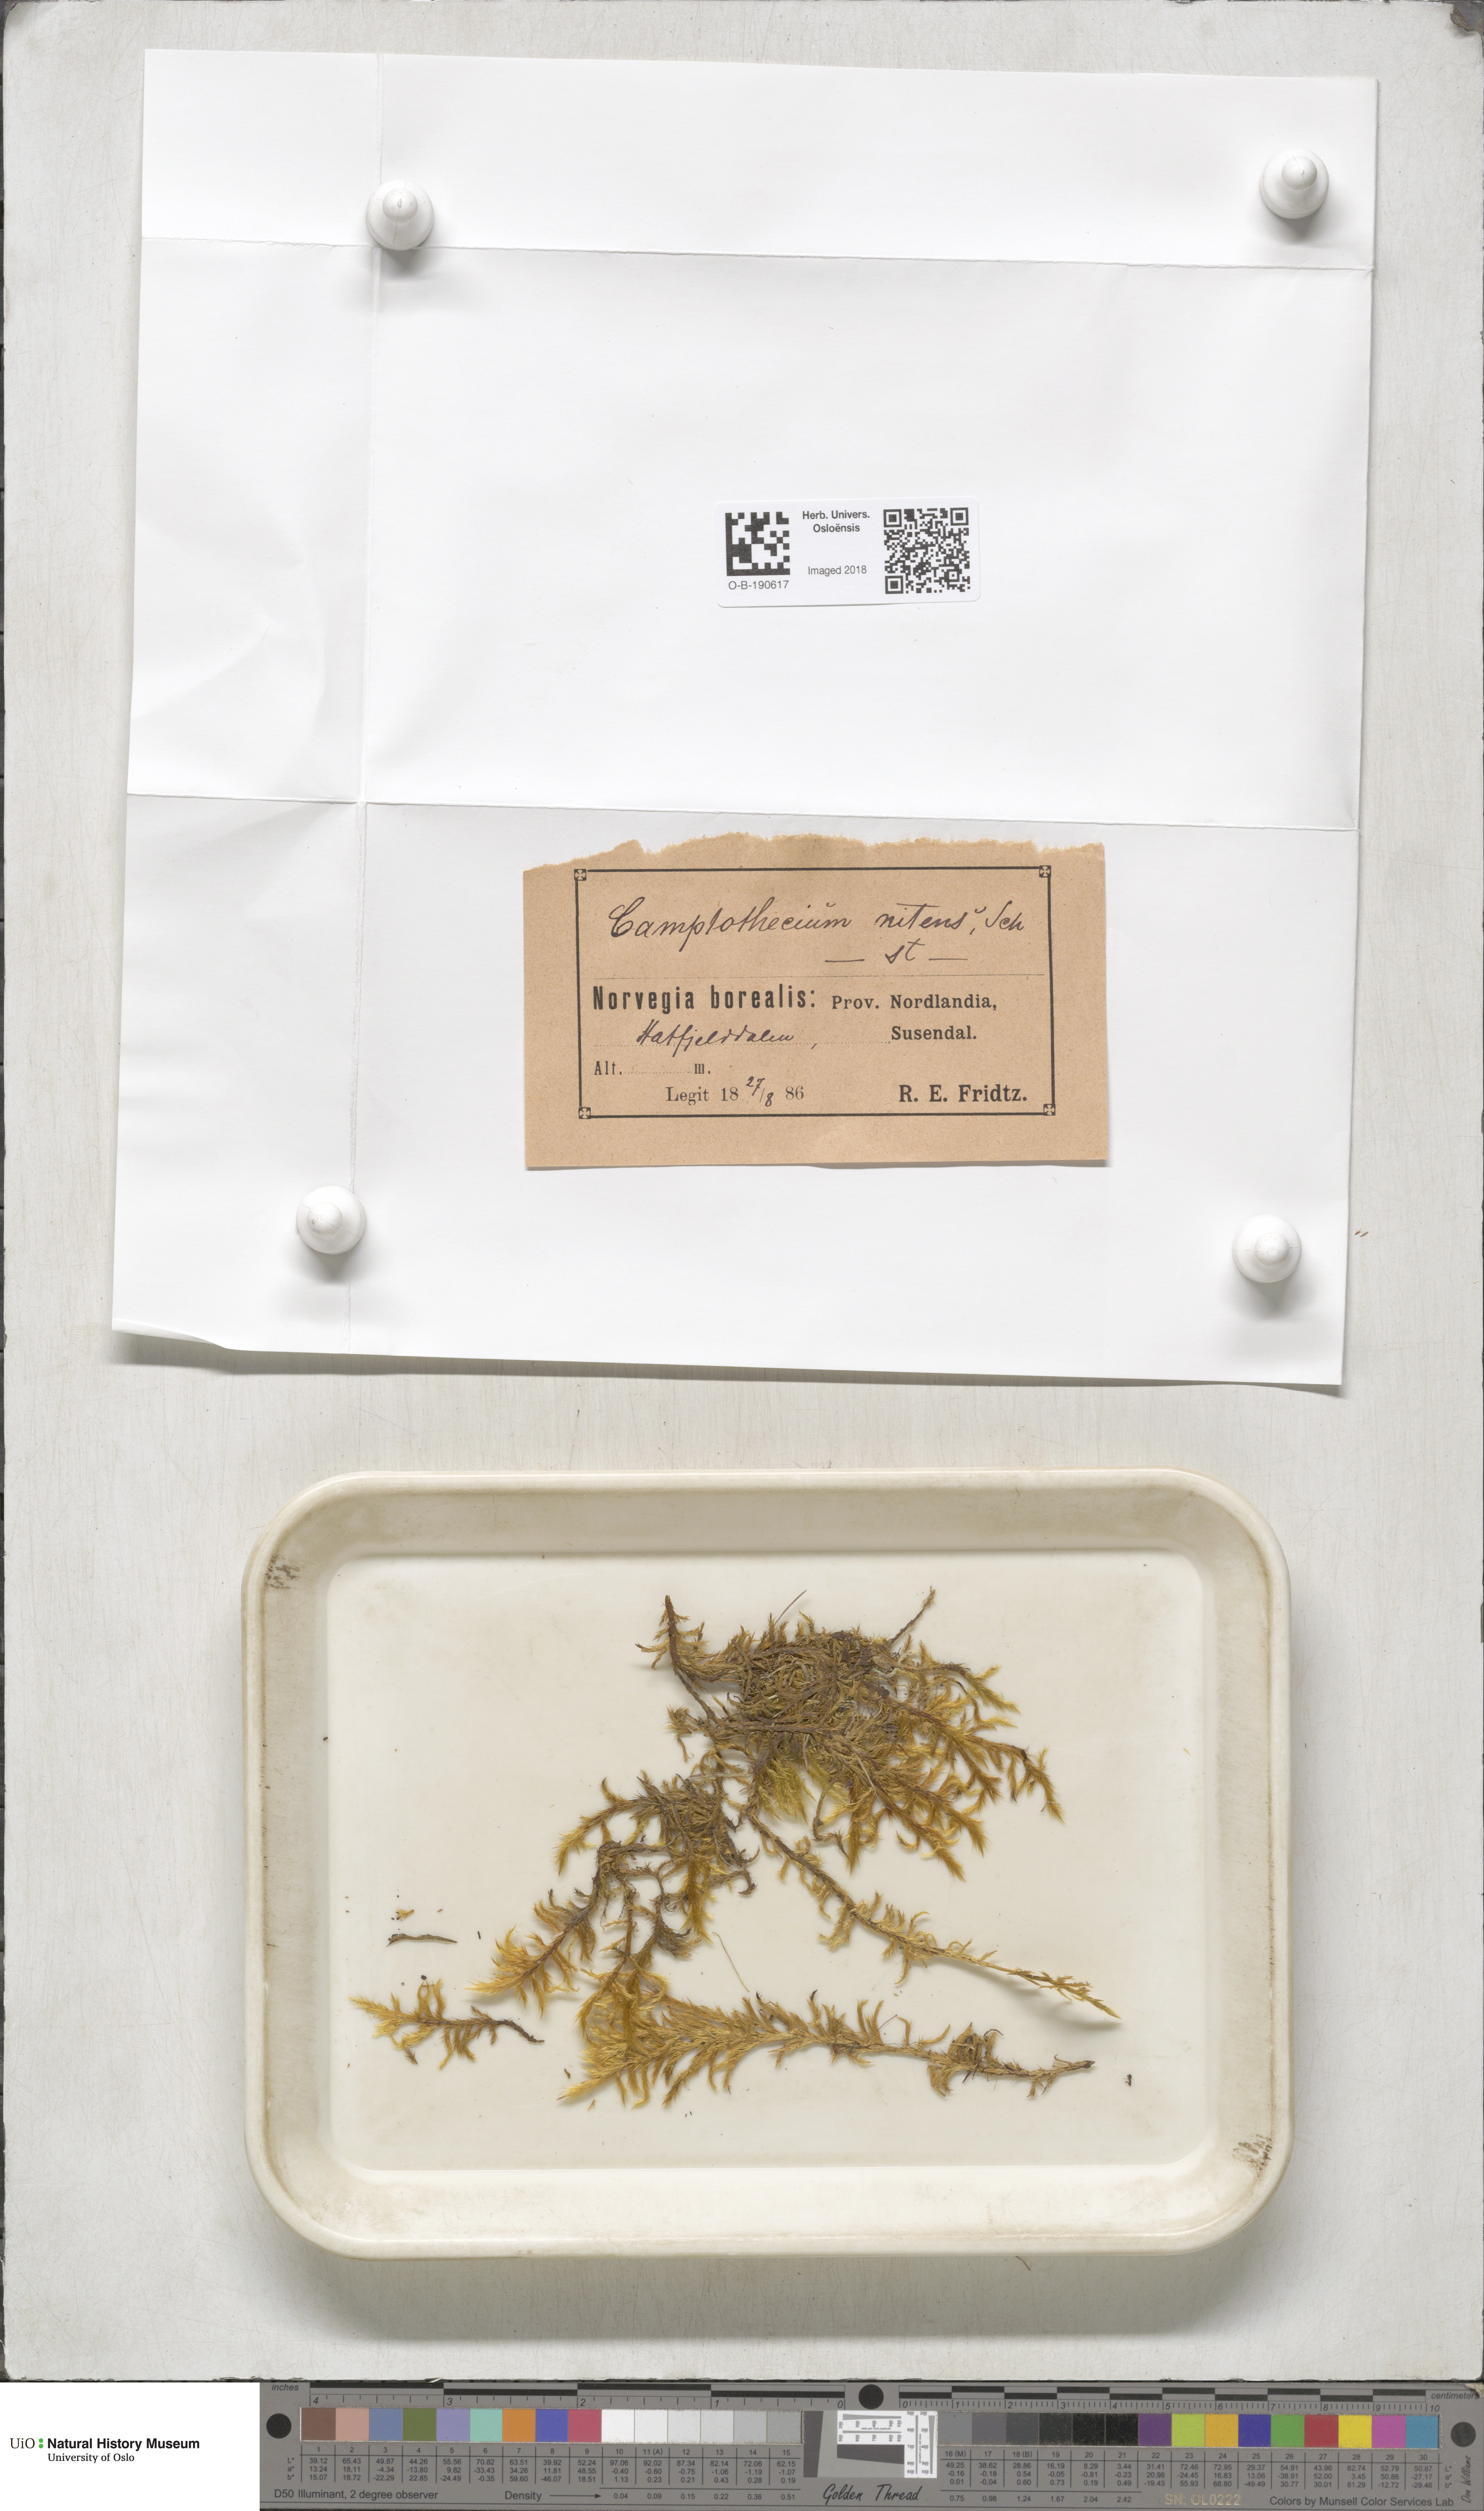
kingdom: Plantae
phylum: Bryophyta
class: Bryopsida
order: Hypnales
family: Amblystegiaceae
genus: Tomentypnum
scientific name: Tomentypnum nitens
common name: Golden fuzzy fen moss
